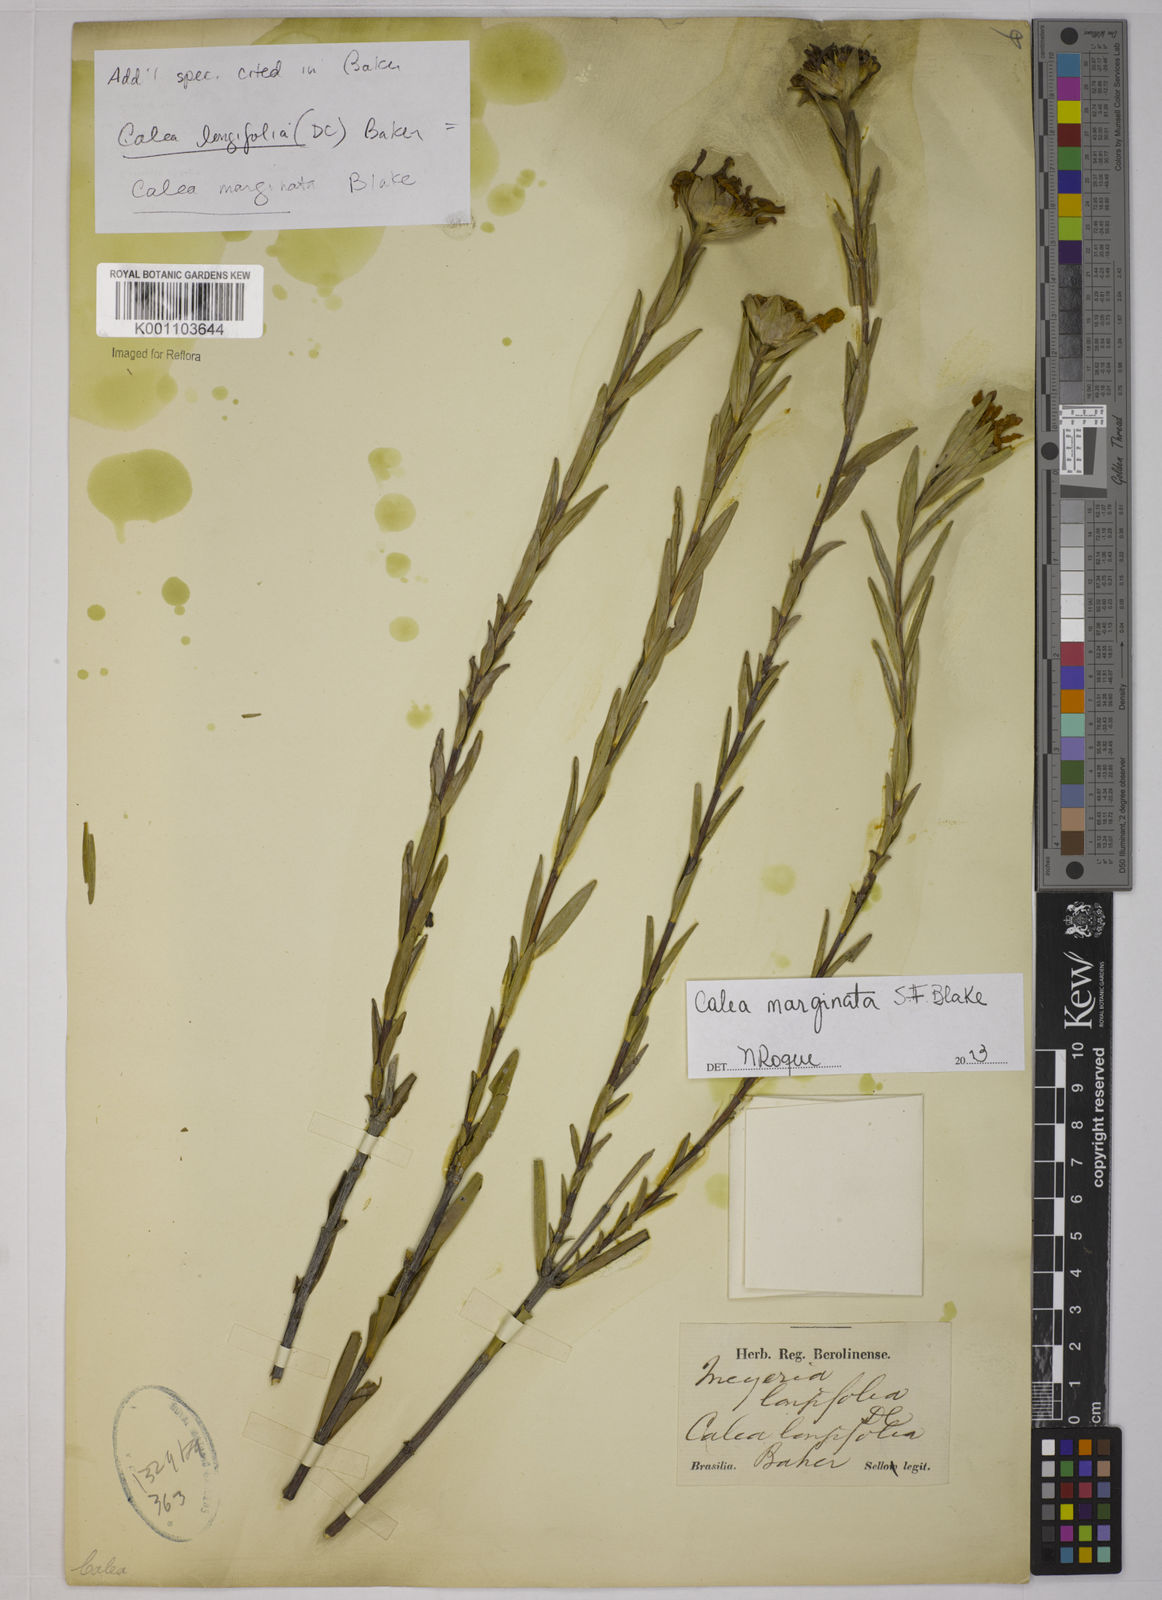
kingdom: Plantae
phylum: Tracheophyta
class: Magnoliopsida
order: Asterales
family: Asteraceae
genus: Calea
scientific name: Calea marginata
